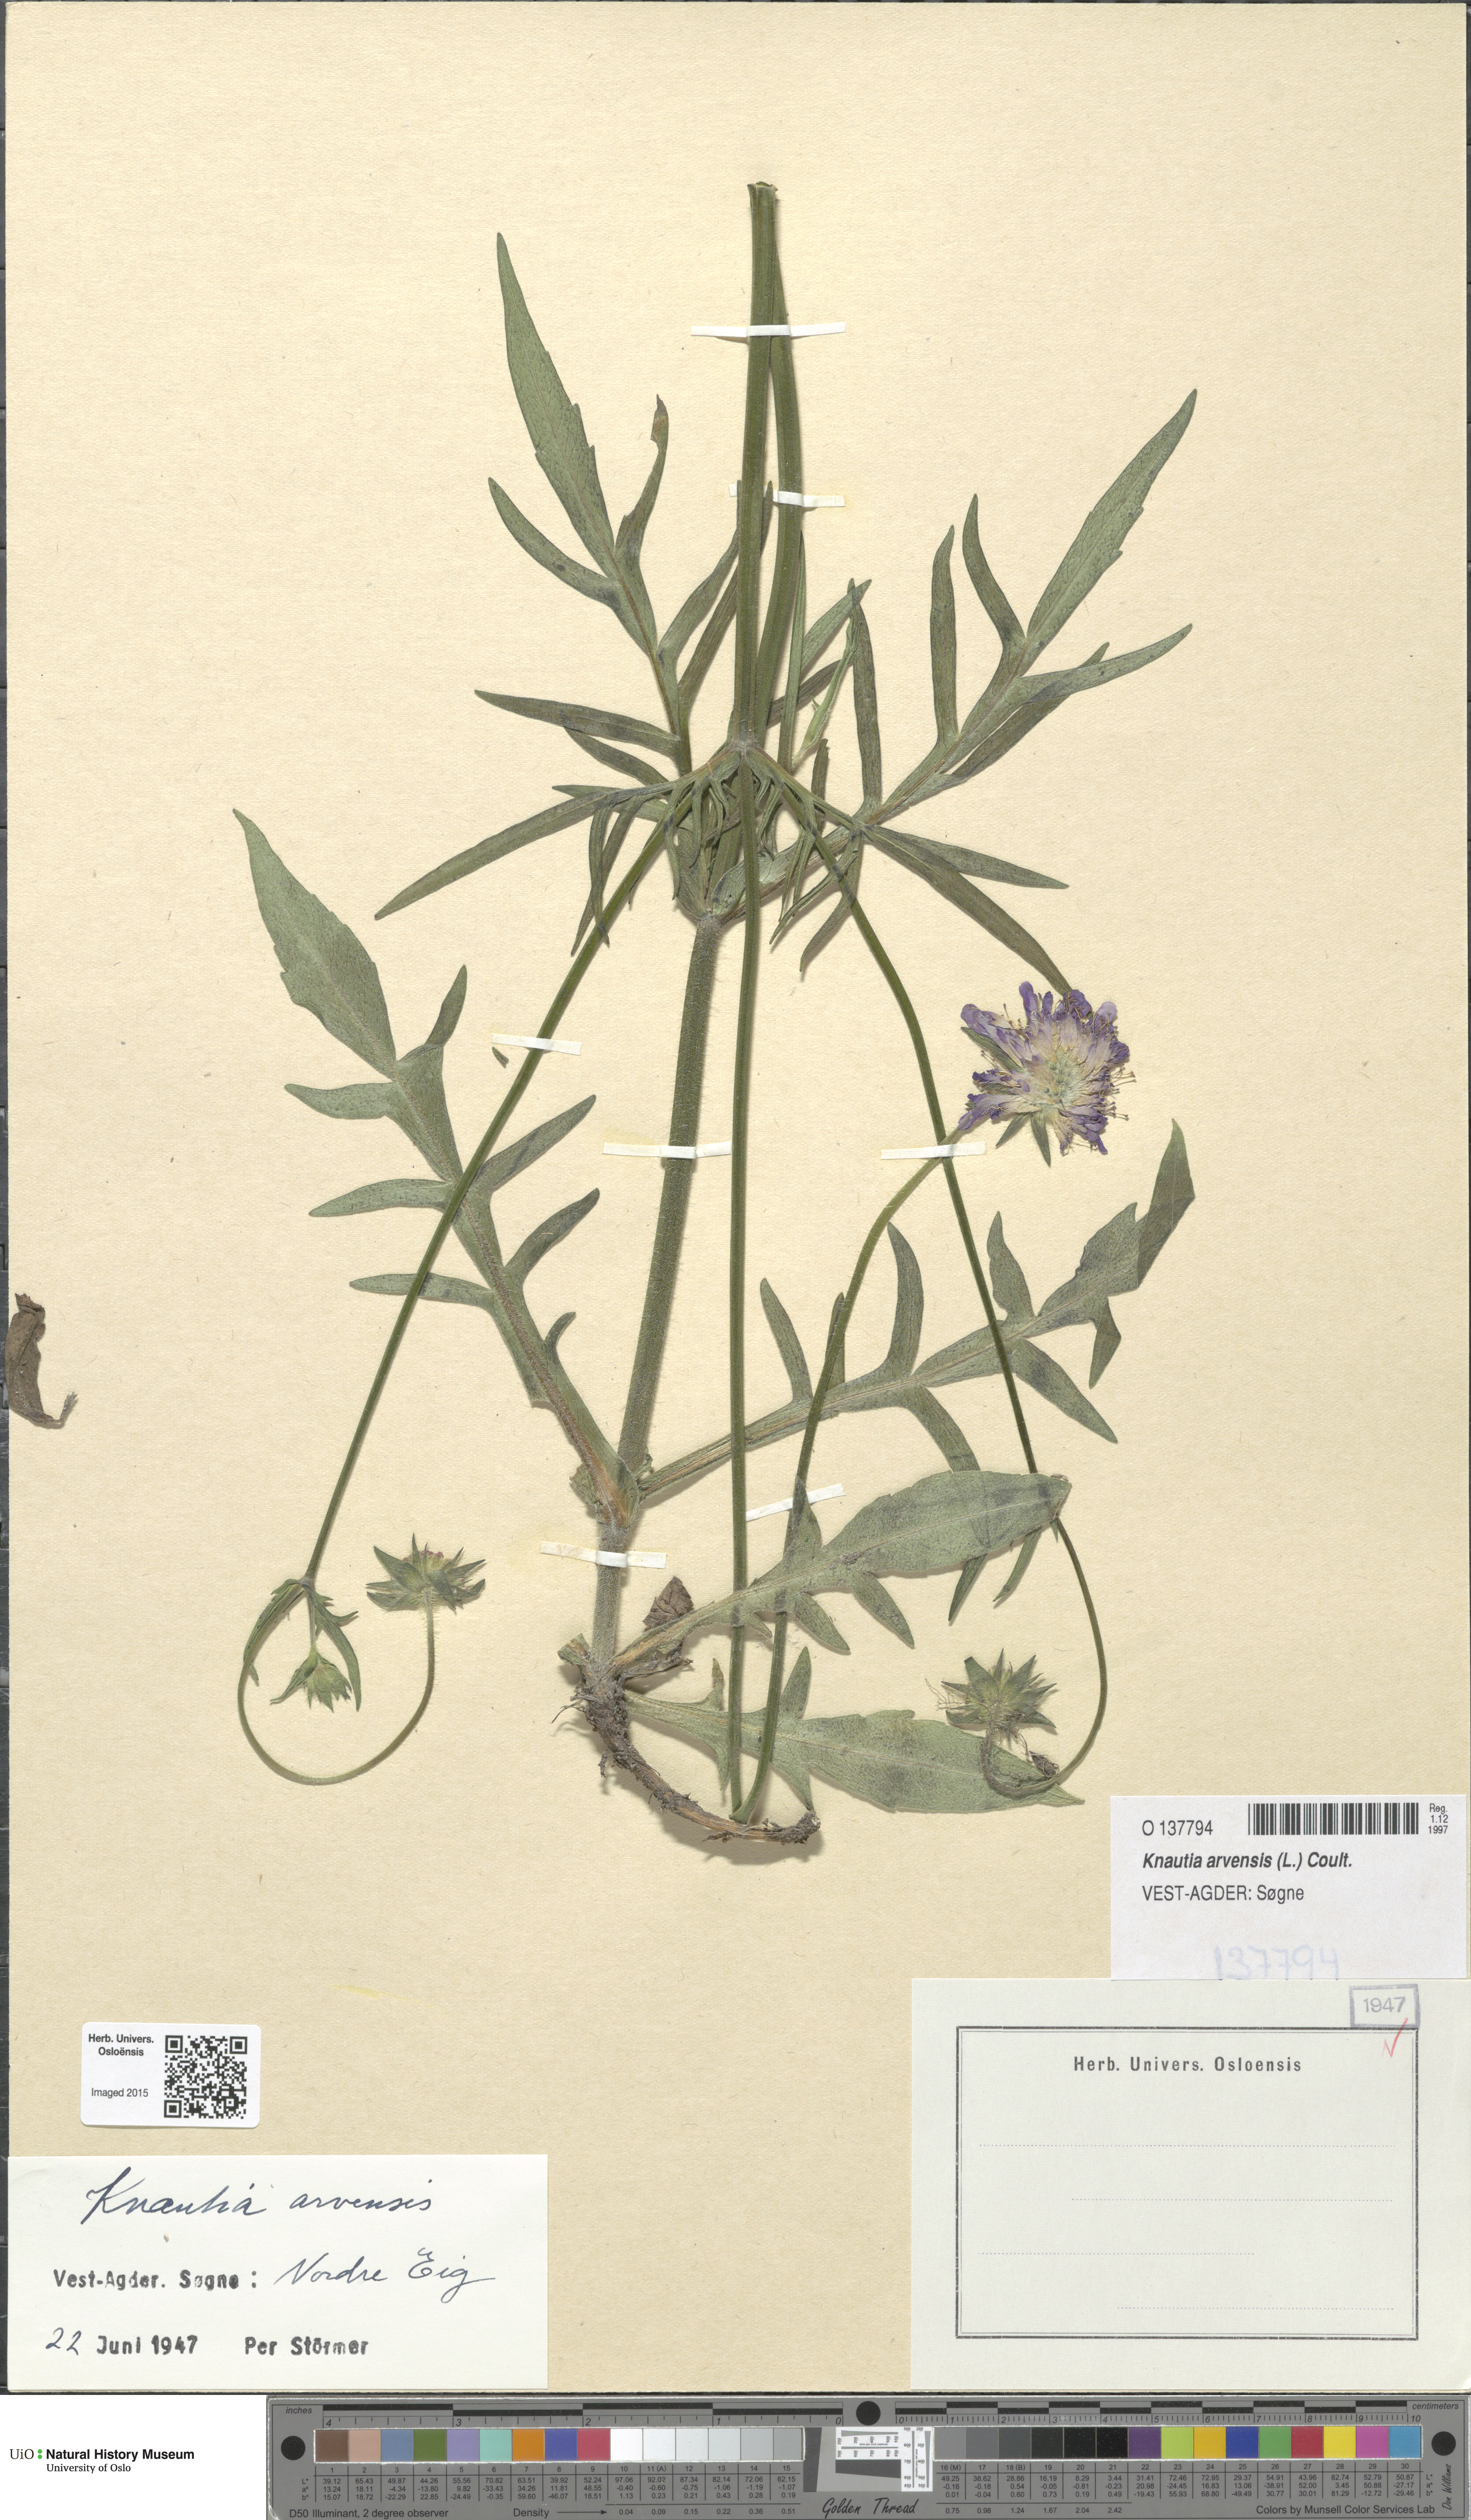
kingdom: Plantae
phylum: Tracheophyta
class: Magnoliopsida
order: Dipsacales
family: Caprifoliaceae
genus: Knautia
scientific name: Knautia arvensis
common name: Field scabiosa
